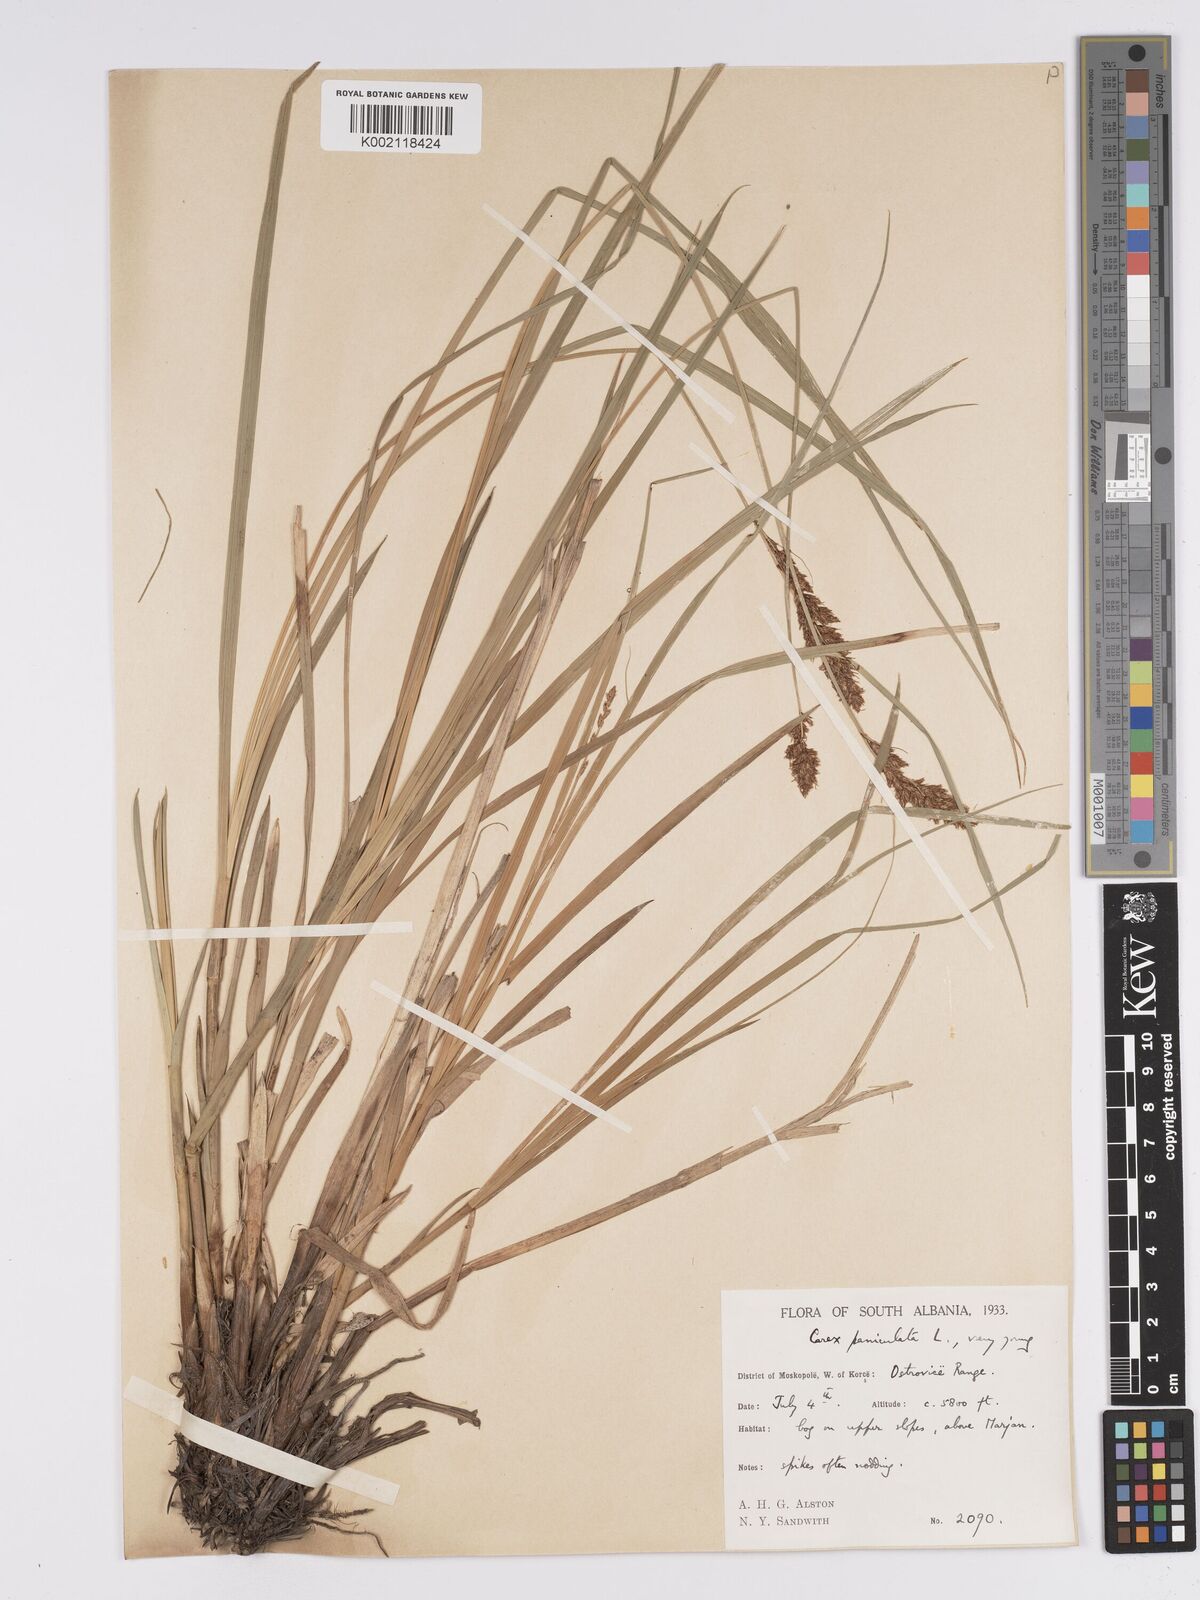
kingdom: Plantae
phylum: Tracheophyta
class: Liliopsida
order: Poales
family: Cyperaceae
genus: Carex
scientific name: Carex paniculata
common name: Greater tussock-sedge
